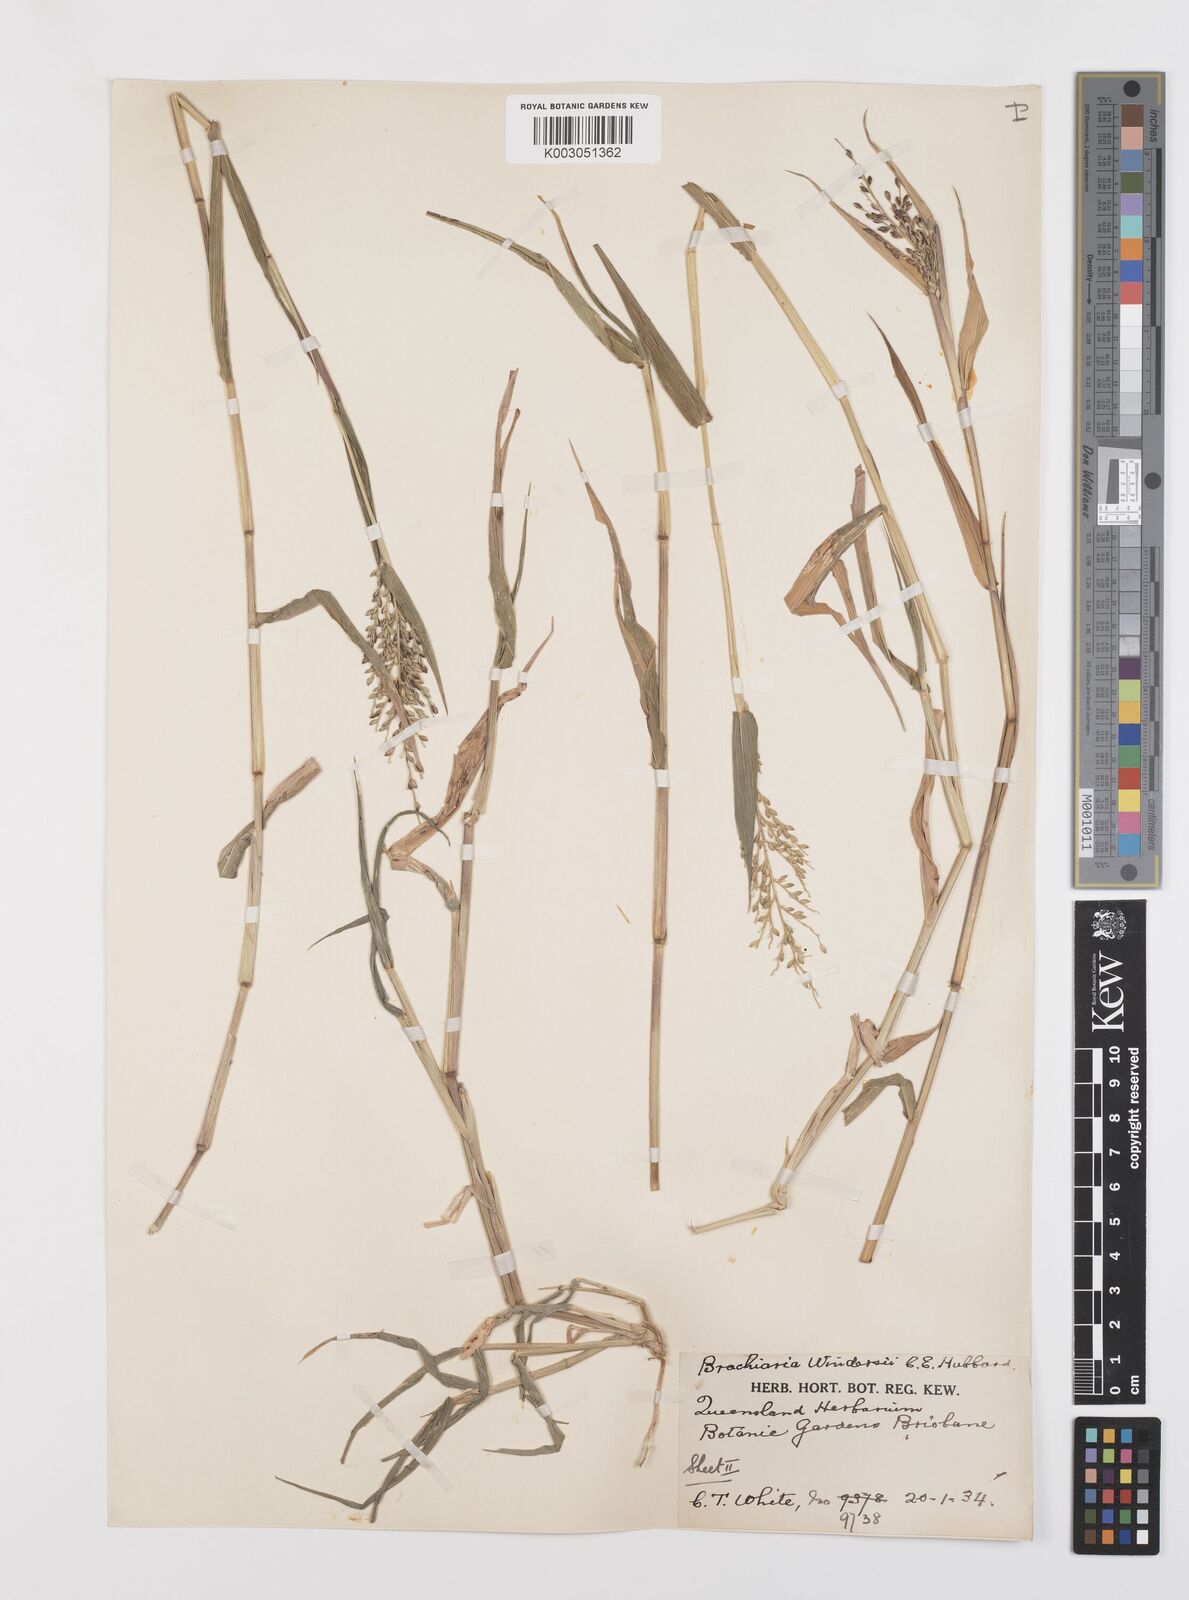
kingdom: Plantae
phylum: Tracheophyta
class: Liliopsida
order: Poales
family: Poaceae
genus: Urochloa
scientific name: Urochloa whiteana
